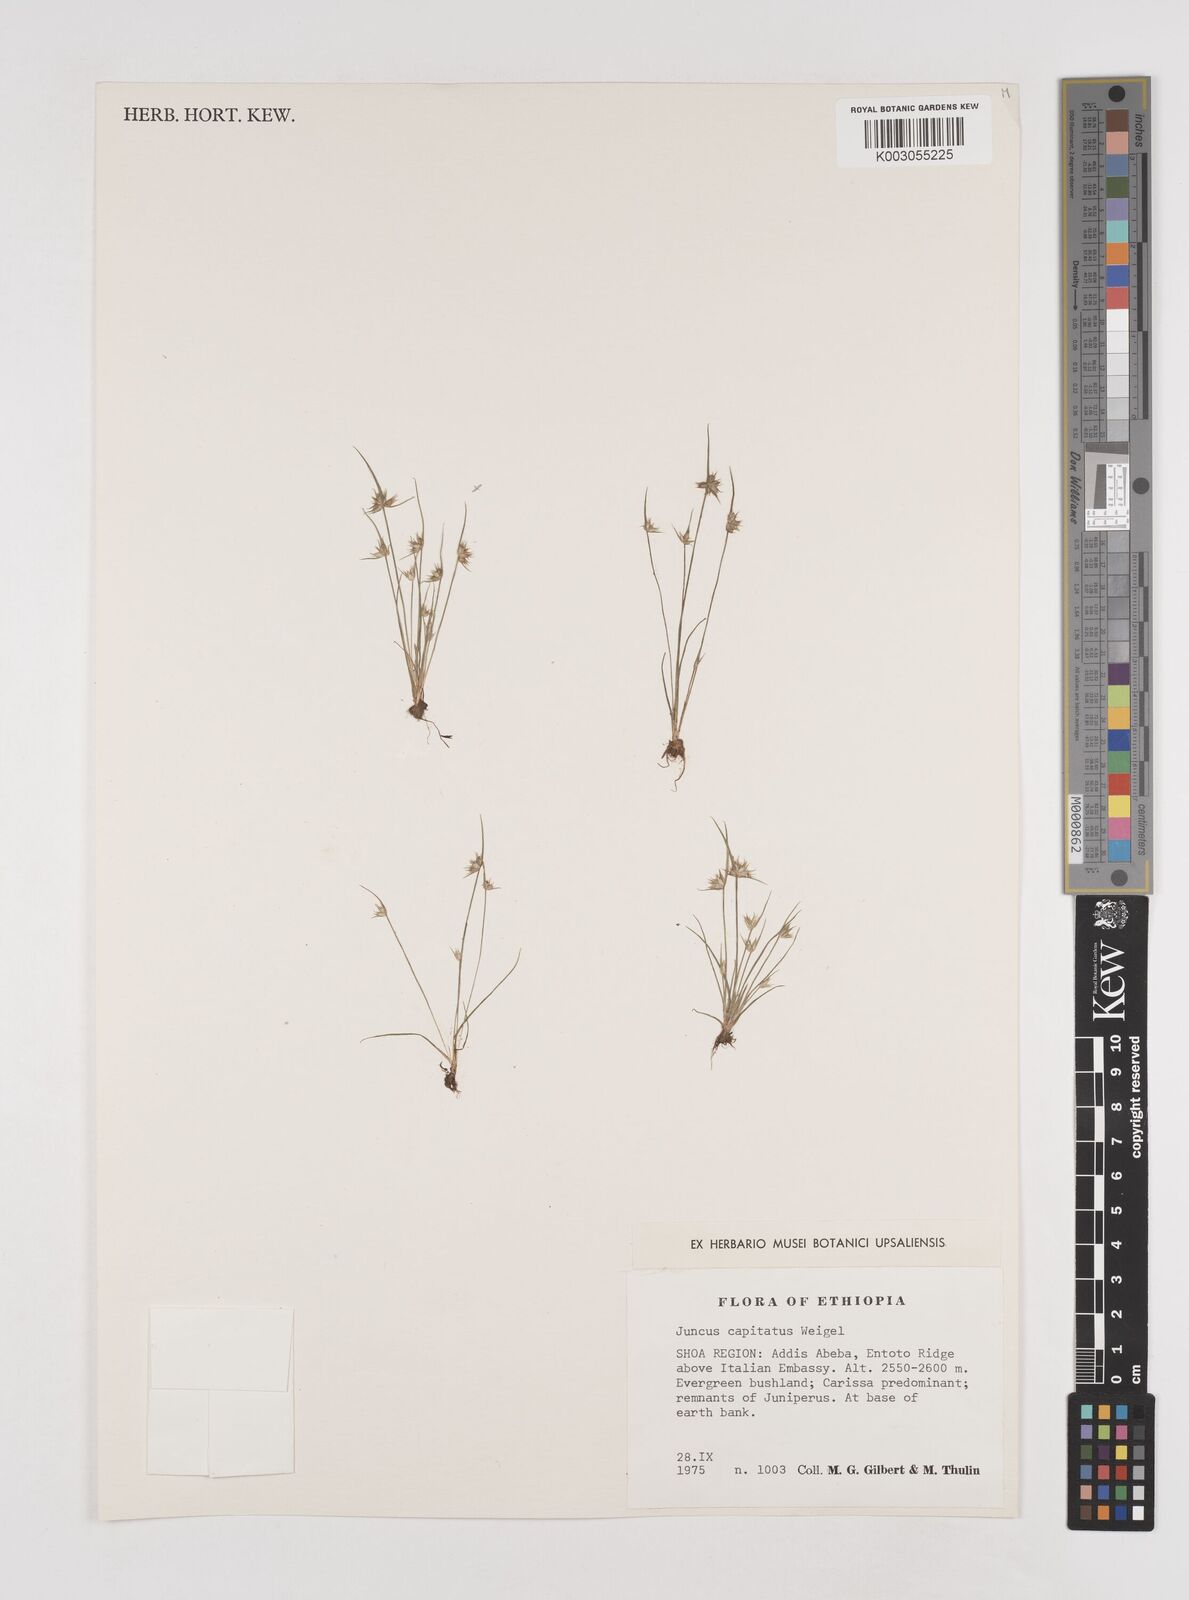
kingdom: Plantae
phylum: Tracheophyta
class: Liliopsida
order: Poales
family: Juncaceae
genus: Juncus
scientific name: Juncus capitatus
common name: Dwarf rush
